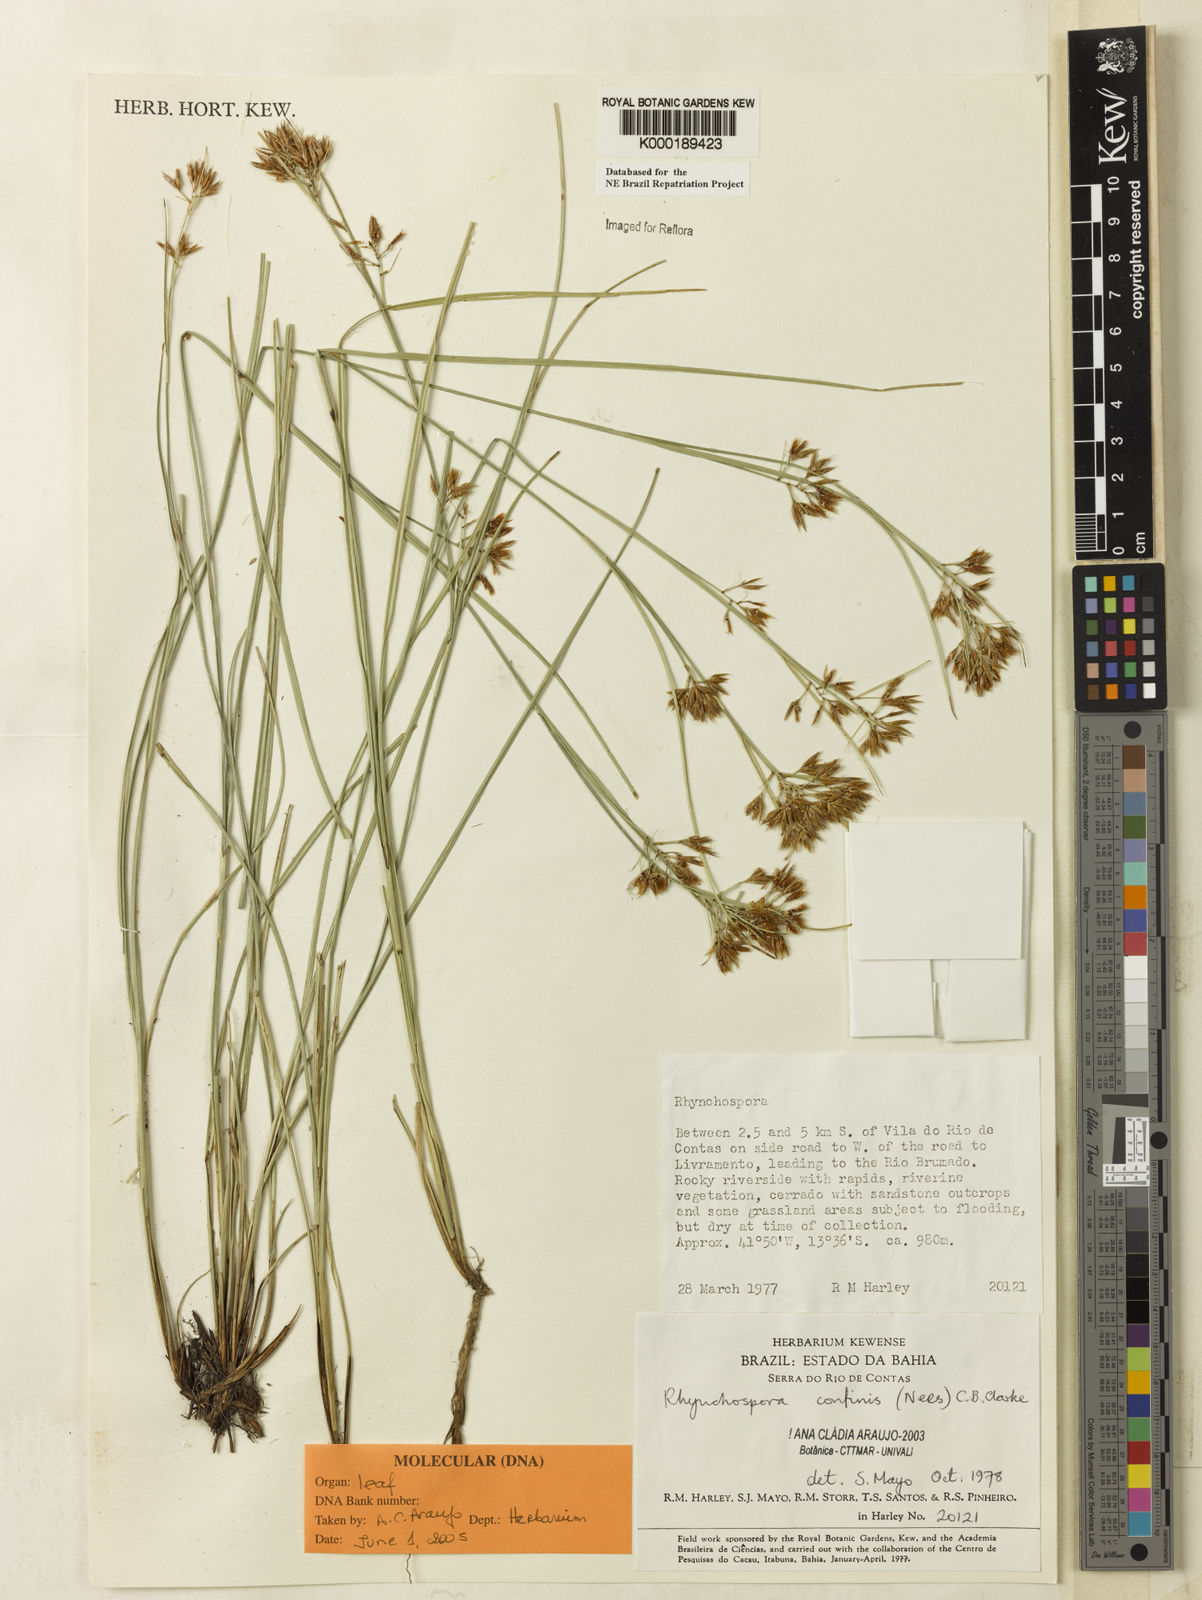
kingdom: Plantae
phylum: Tracheophyta
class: Liliopsida
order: Poales
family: Cyperaceae
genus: Rhynchospora
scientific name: Rhynchospora confinis
